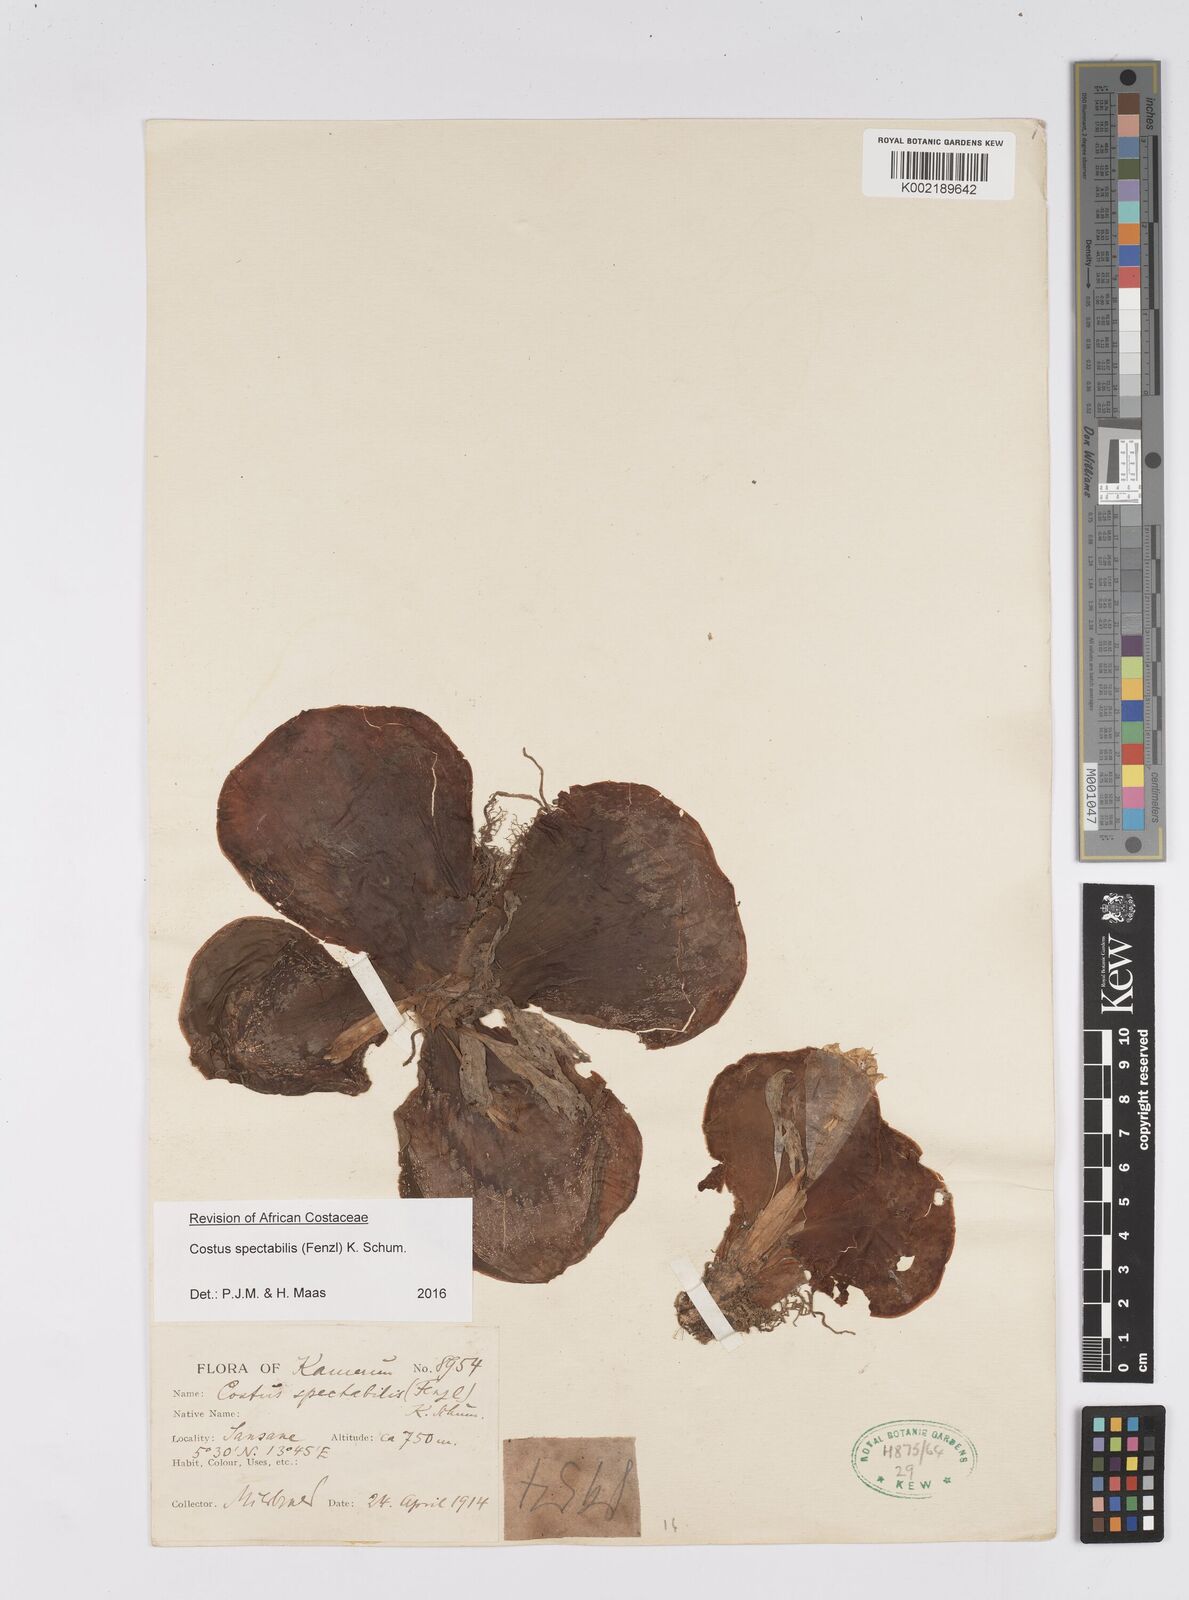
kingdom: Plantae
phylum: Tracheophyta
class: Liliopsida
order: Zingiberales
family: Costaceae
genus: Costus
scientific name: Costus spectabilis
